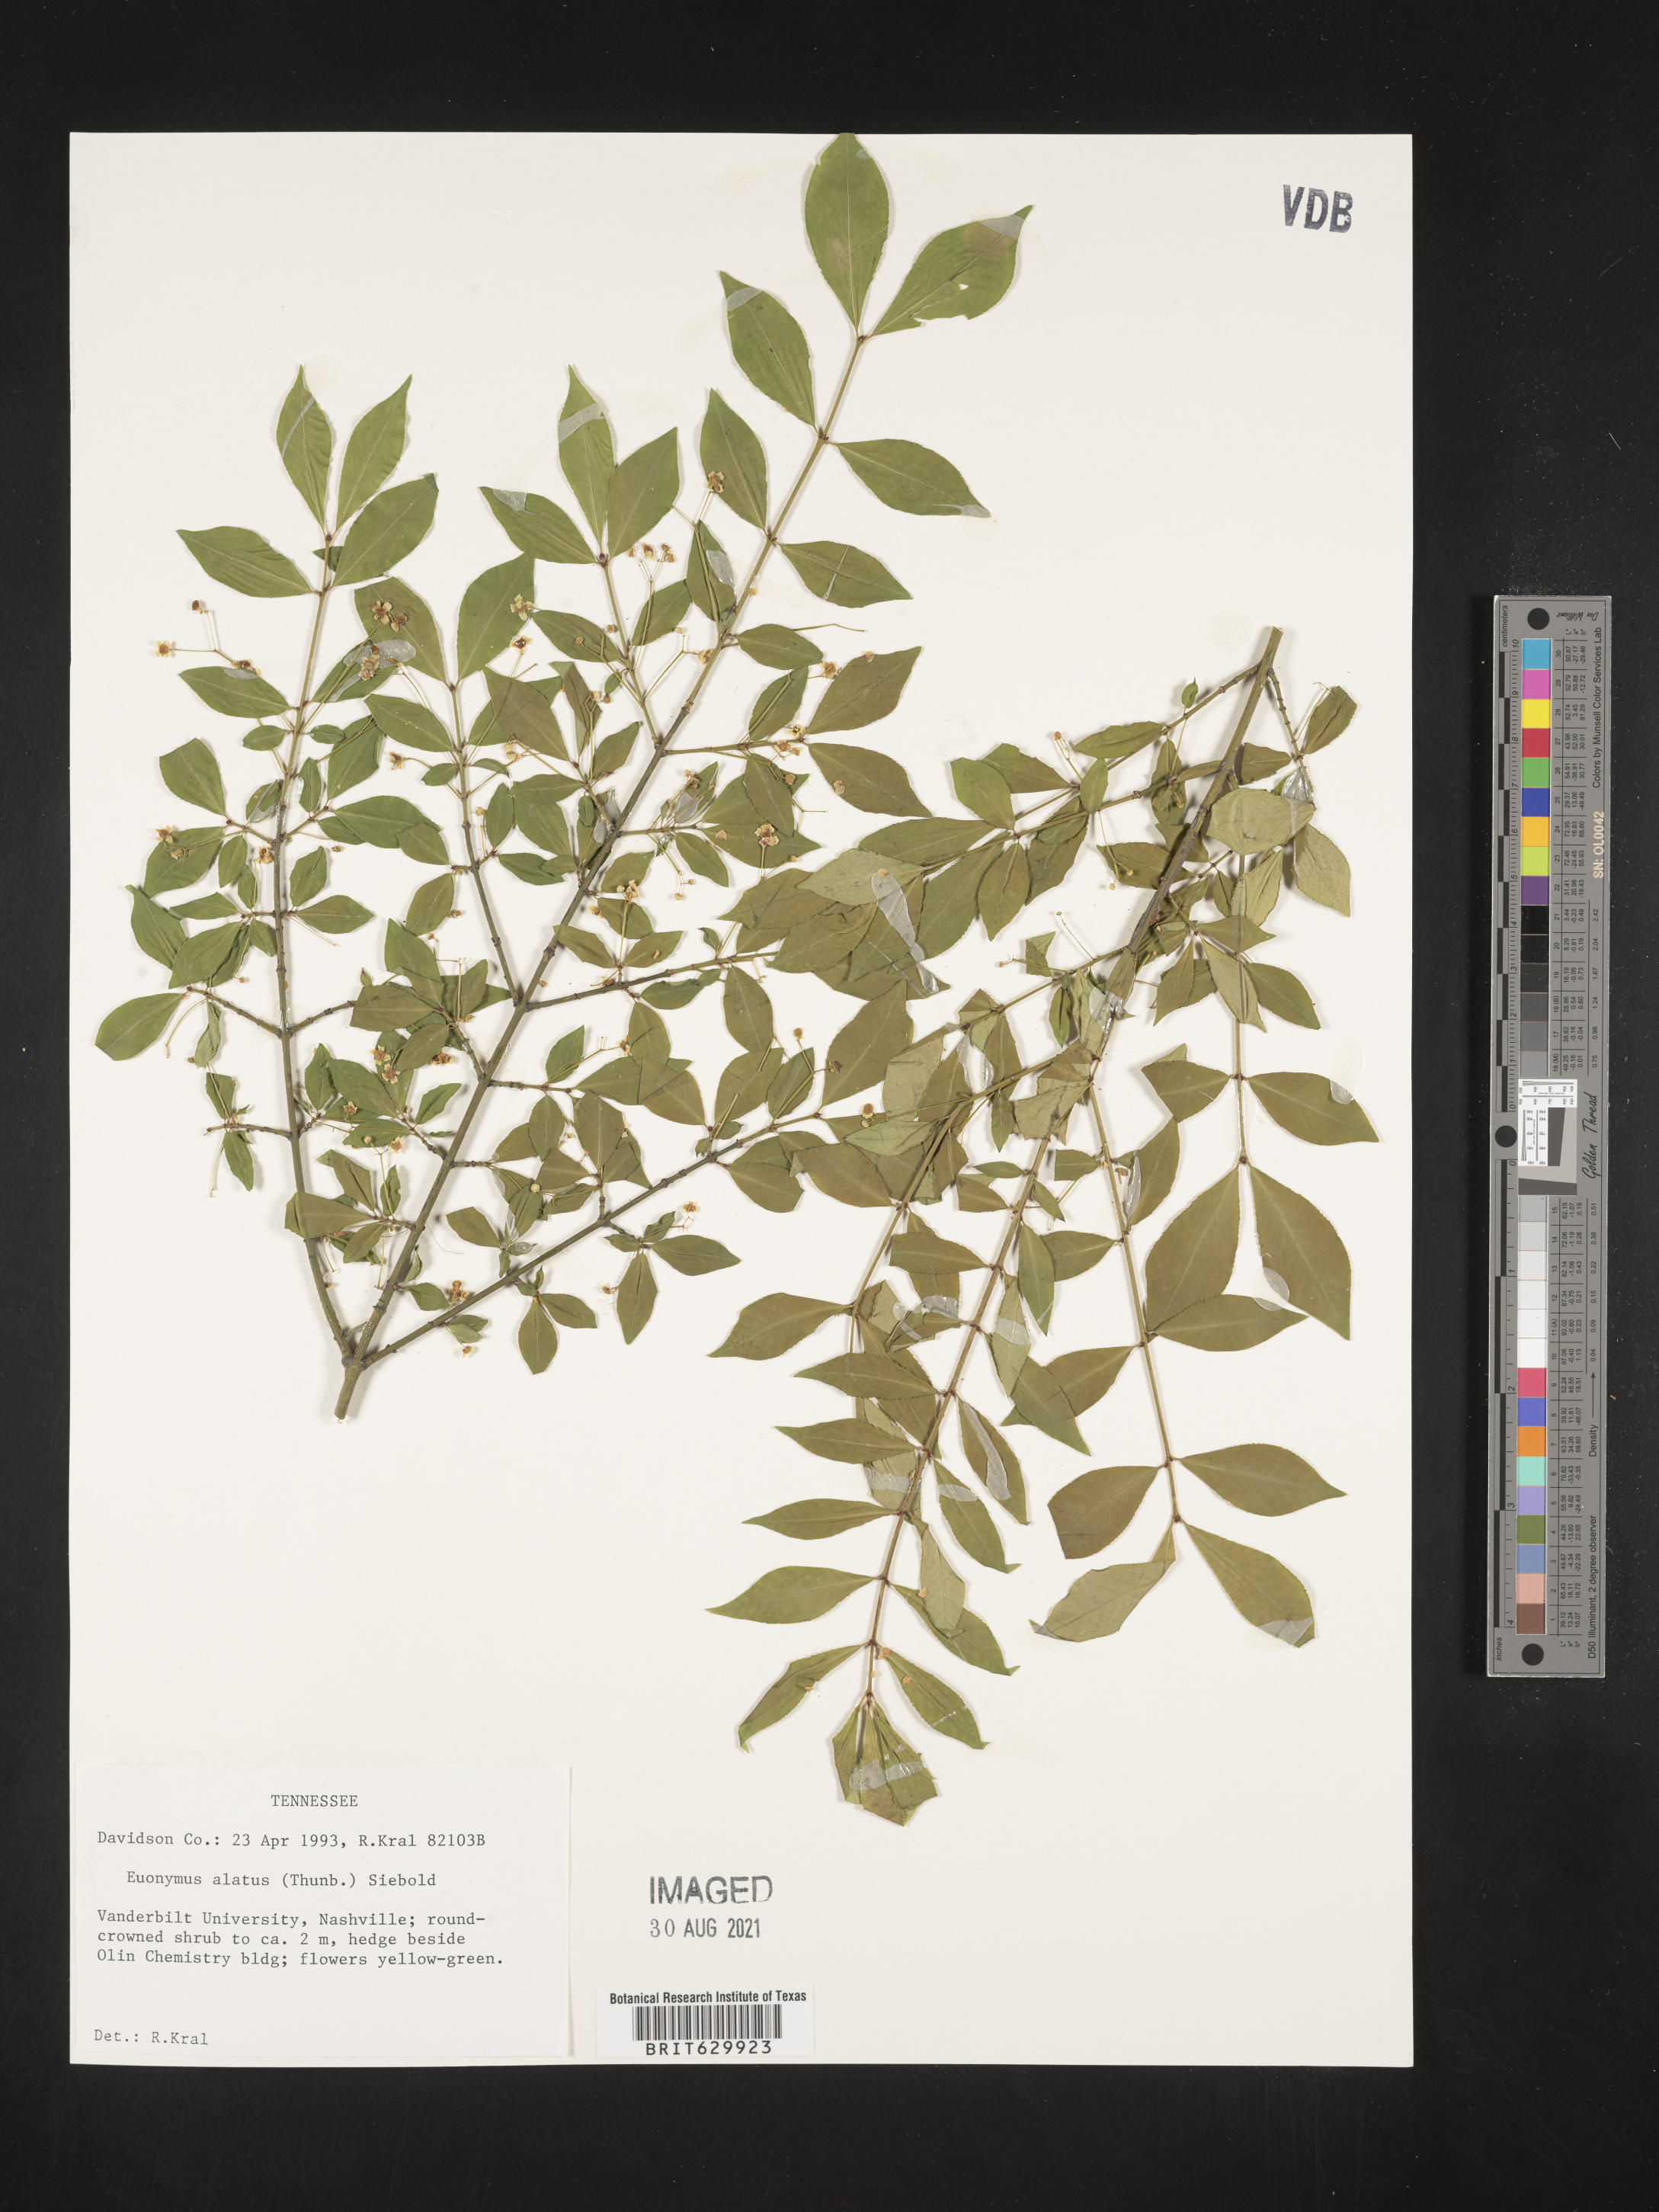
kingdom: Plantae
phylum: Tracheophyta
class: Magnoliopsida
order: Celastrales
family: Celastraceae
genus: Euonymus
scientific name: Euonymus alatus
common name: Winged euonymus
